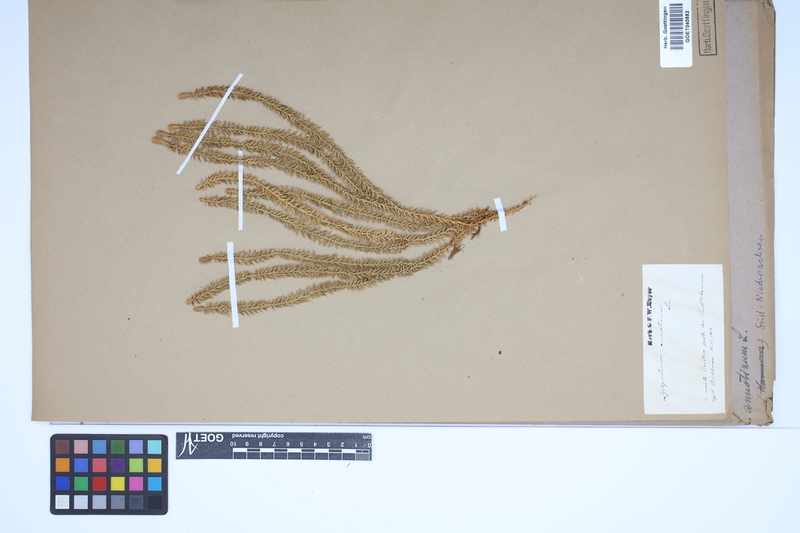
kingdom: Plantae
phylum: Tracheophyta
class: Lycopodiopsida
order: Lycopodiales
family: Lycopodiaceae
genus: Spinulum
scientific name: Spinulum annotinum
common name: Interrupted club-moss
